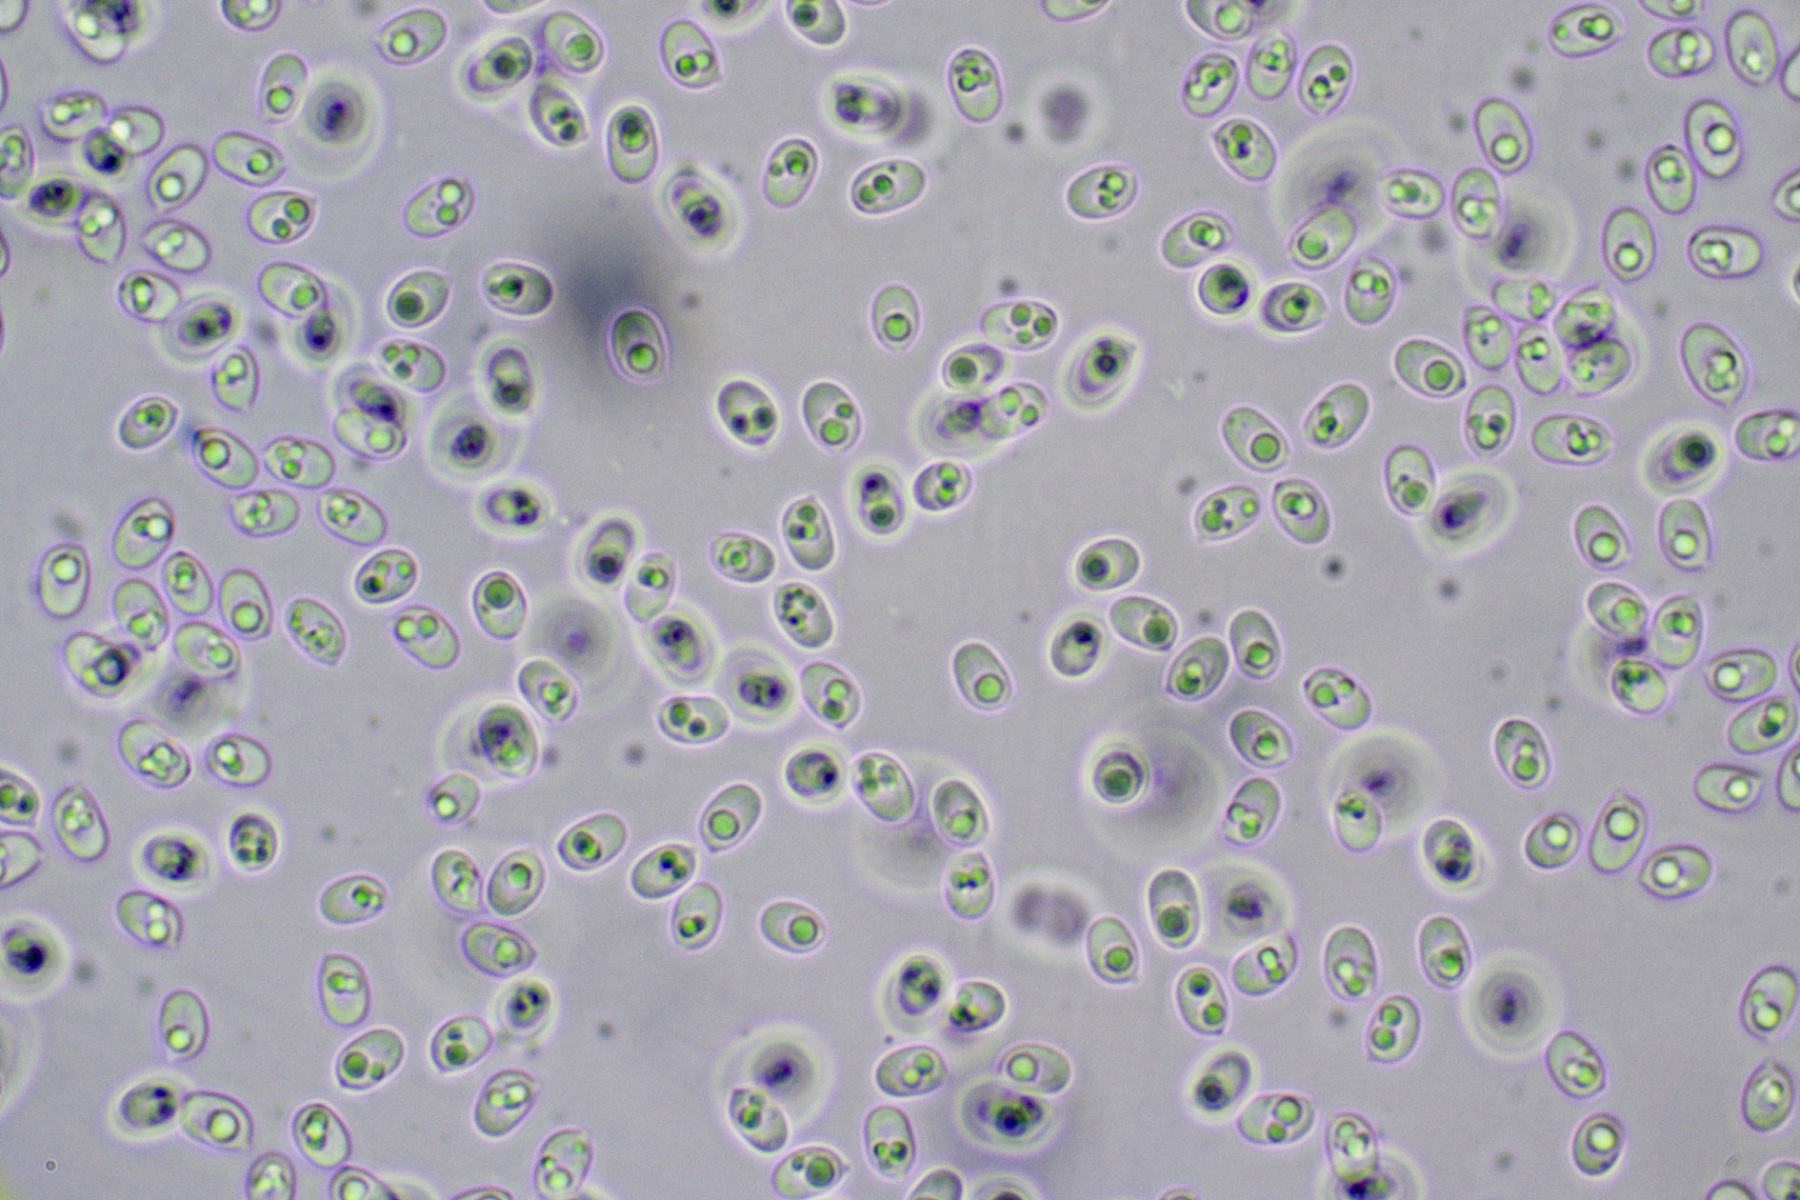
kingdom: Fungi
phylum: Basidiomycota
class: Agaricomycetes
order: Hymenochaetales
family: Schizoporaceae
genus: Xylodon
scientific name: Xylodon subtropicus
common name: labyrint-tandsvamp
